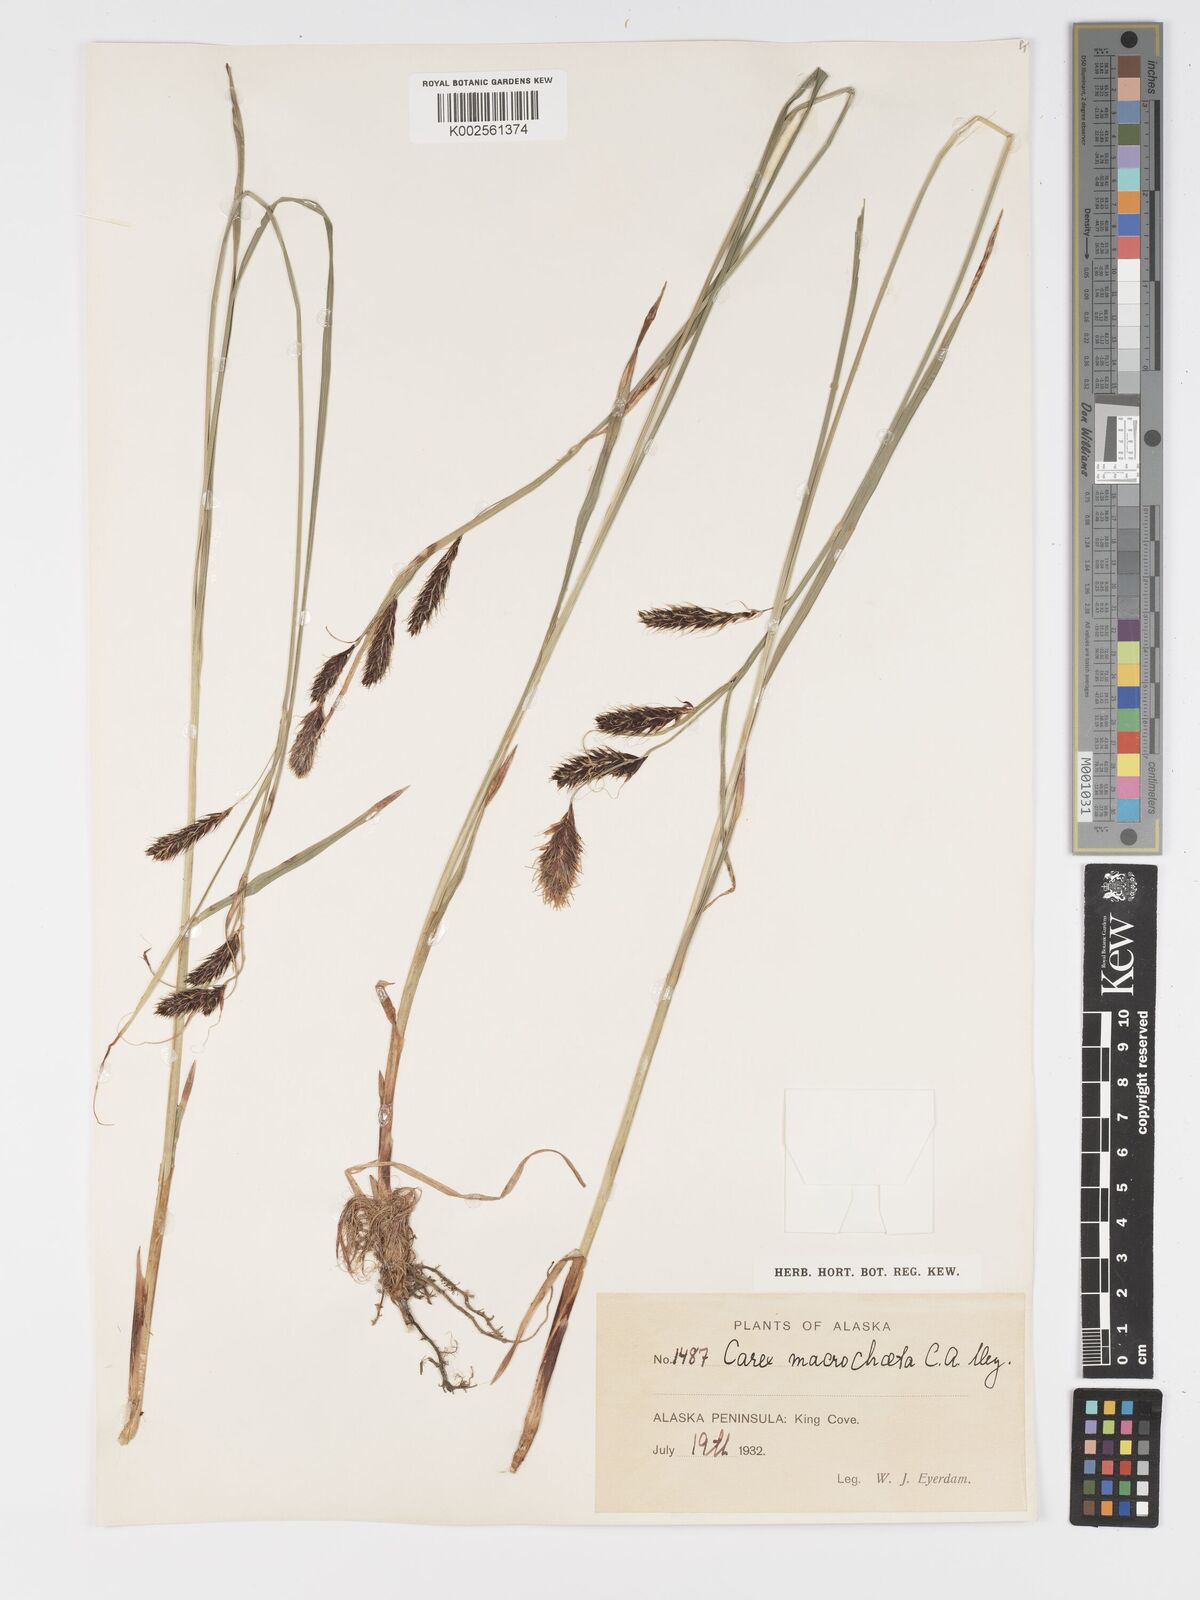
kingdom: Plantae
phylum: Tracheophyta
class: Liliopsida
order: Poales
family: Cyperaceae
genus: Carex
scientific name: Carex macrochaeta
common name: Alaska large awn sedge
